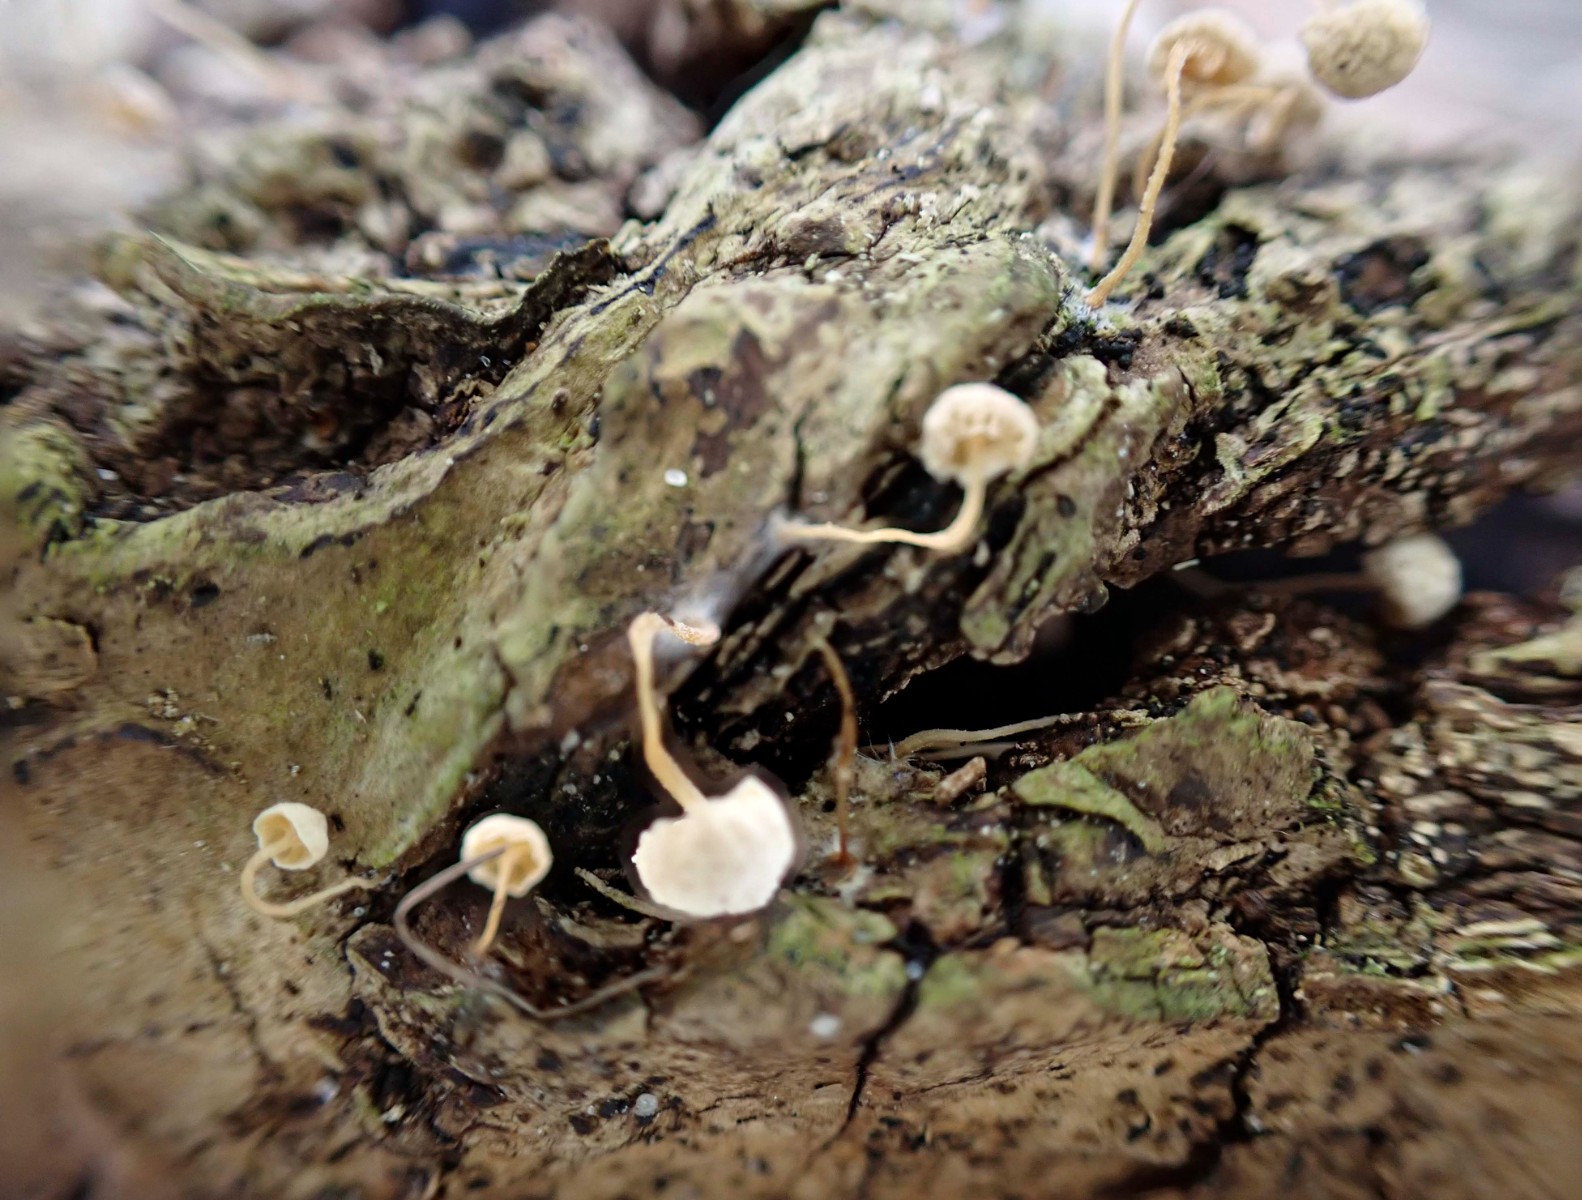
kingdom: Fungi
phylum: Basidiomycota
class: Agaricomycetes
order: Agaricales
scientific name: Agaricales
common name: champignonordenen
